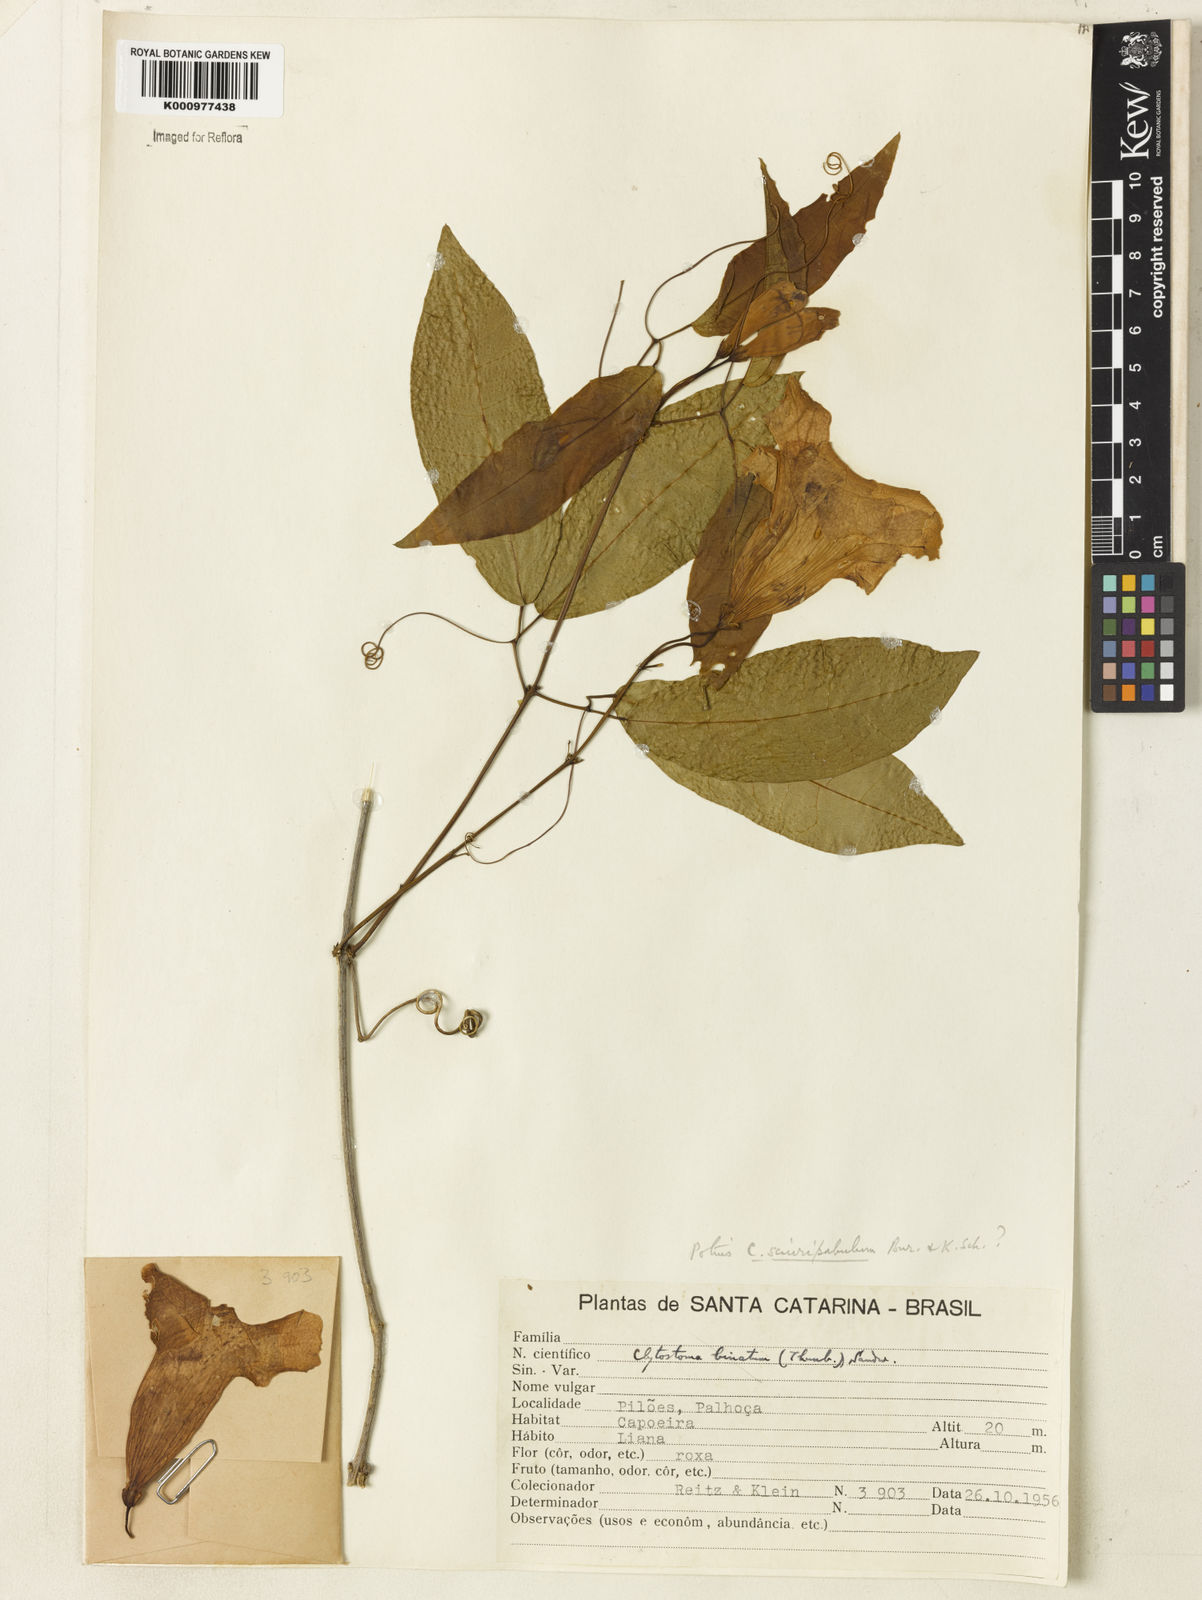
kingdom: Plantae
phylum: Tracheophyta
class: Magnoliopsida
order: Lamiales
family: Bignoniaceae
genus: Bignonia
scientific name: Bignonia
